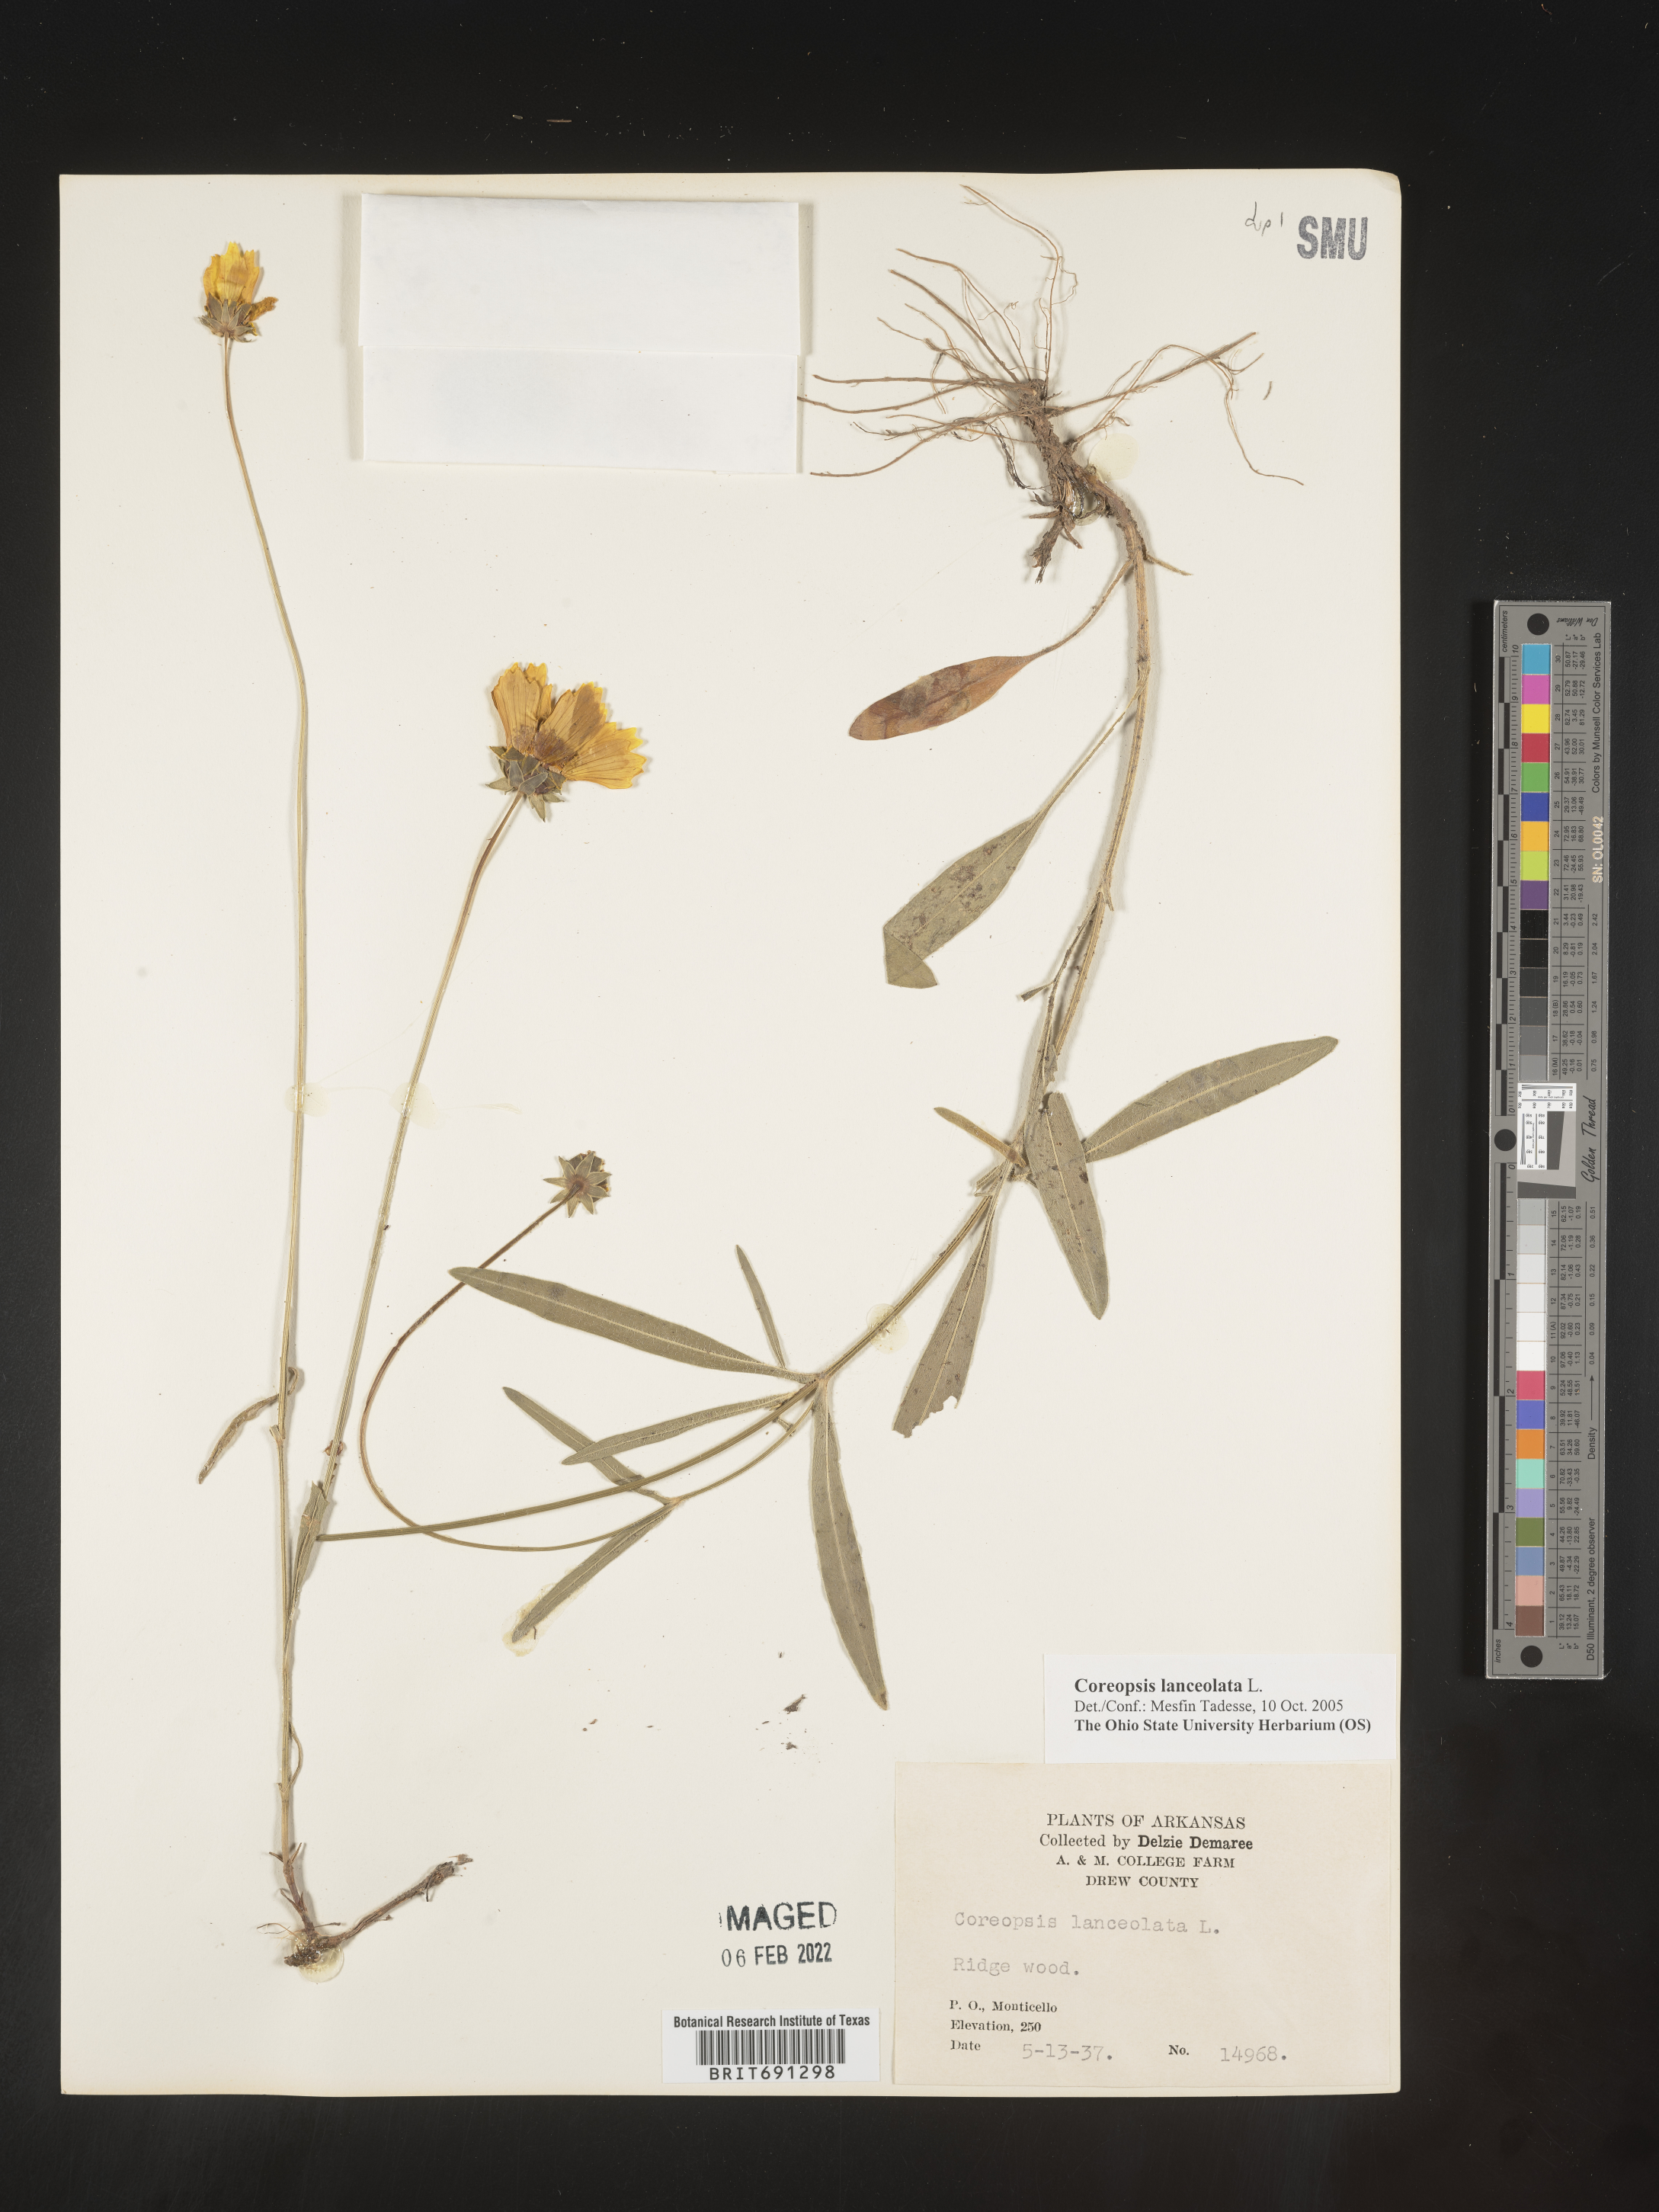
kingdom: Plantae
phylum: Tracheophyta
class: Magnoliopsida
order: Asterales
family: Asteraceae
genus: Coreopsis
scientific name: Coreopsis lanceolata
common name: Garden coreopsis
